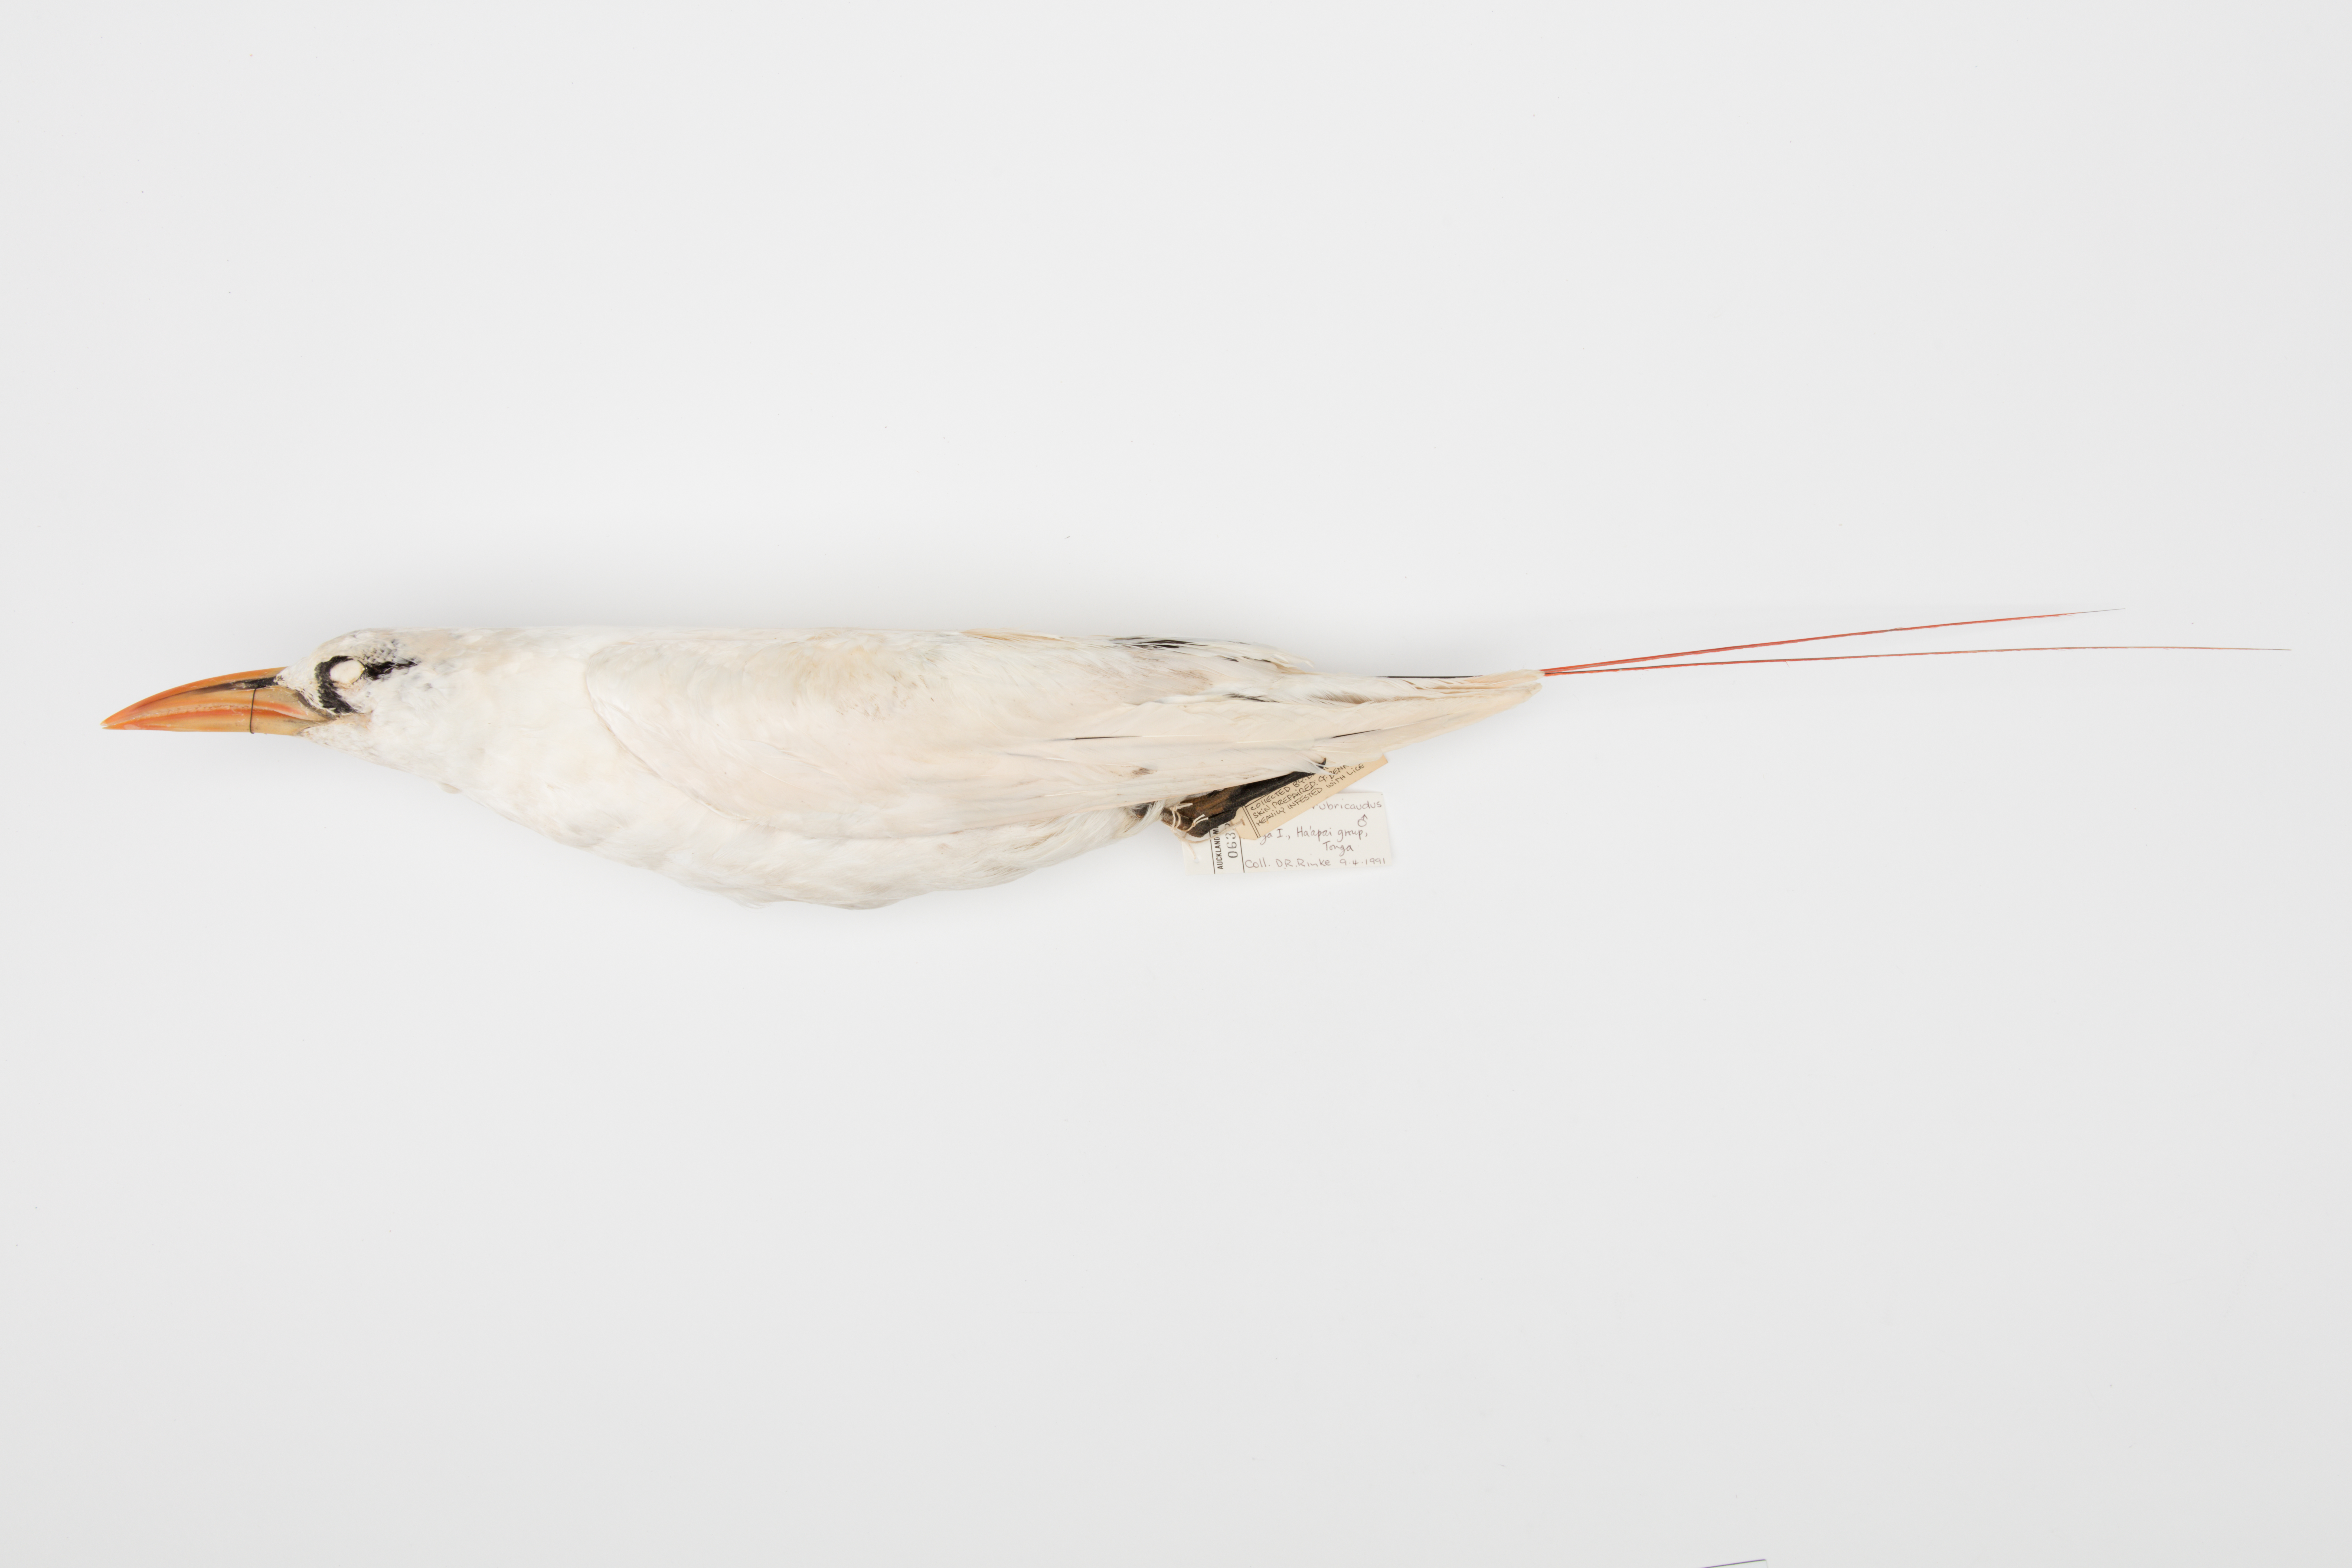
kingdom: Animalia
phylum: Chordata
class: Aves
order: Phaethontiformes
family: Phaethontidae
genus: Phaethon
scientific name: Phaethon rubricauda
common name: Red-tailed tropicbird
